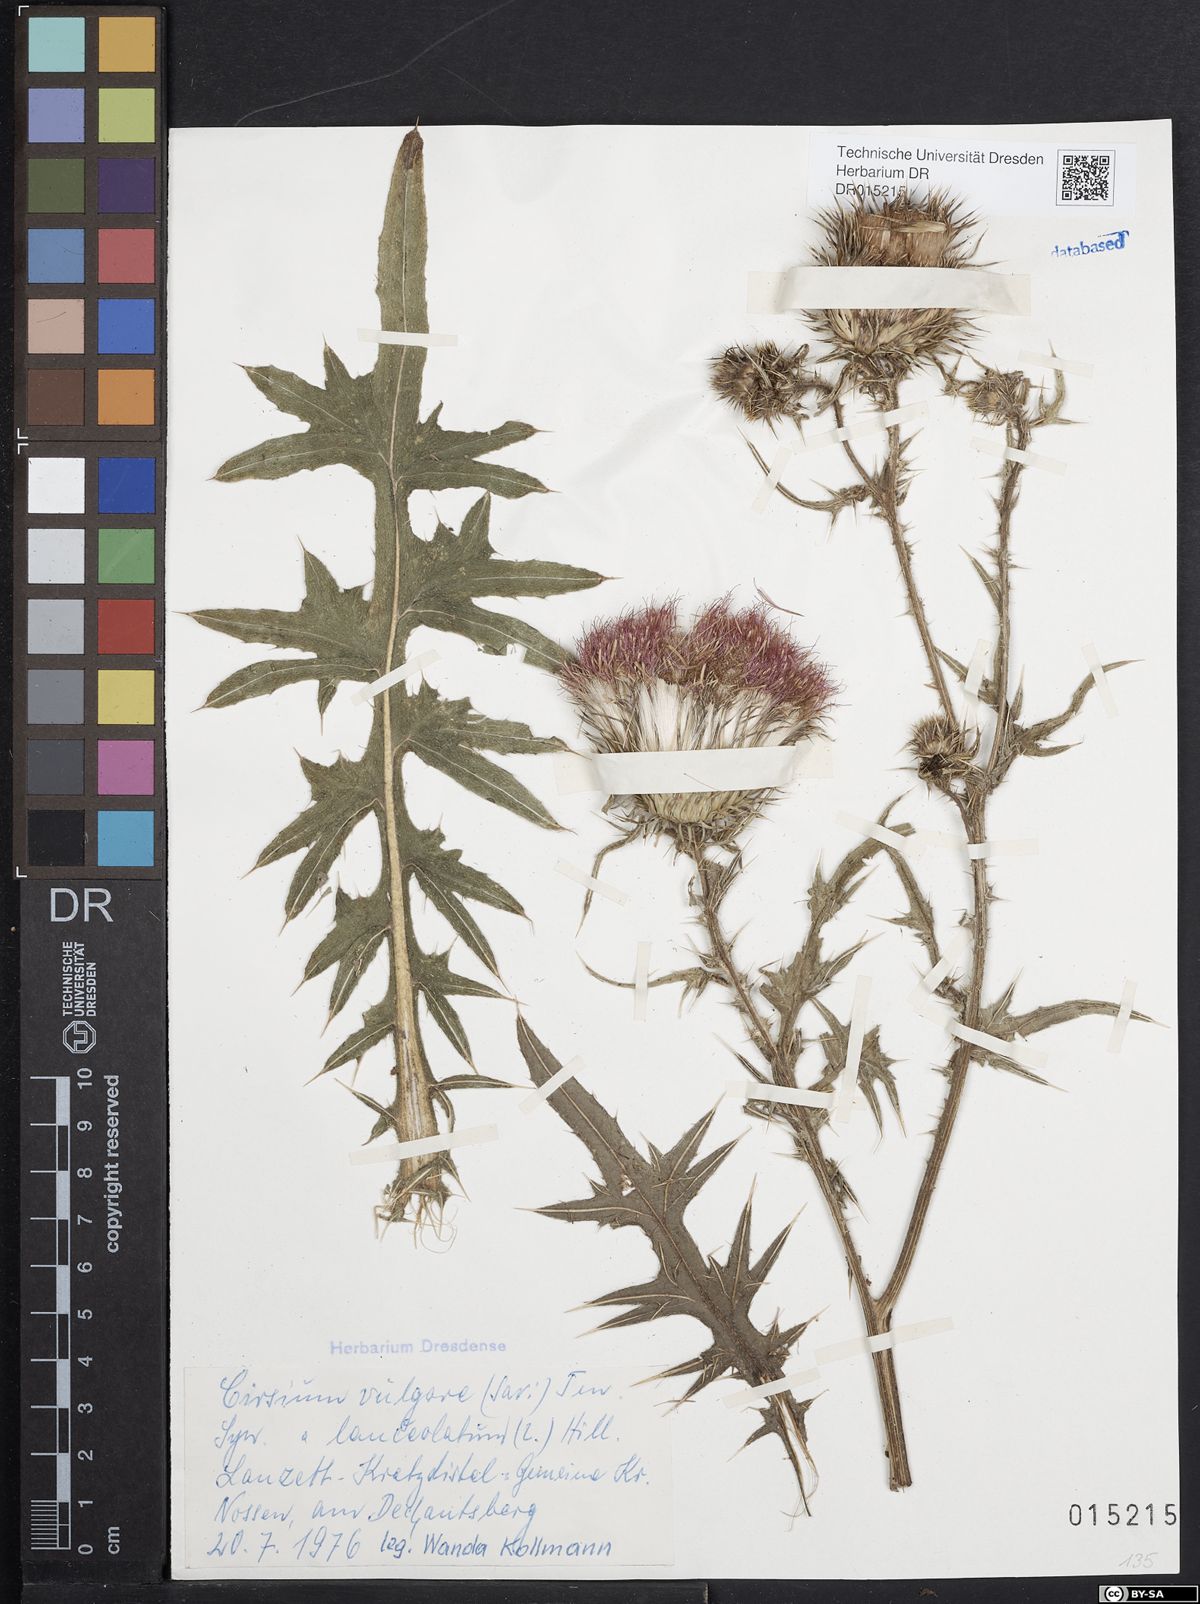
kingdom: Plantae
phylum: Tracheophyta
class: Magnoliopsida
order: Asterales
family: Asteraceae
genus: Cirsium
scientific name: Cirsium vulgare
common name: Bull thistle
